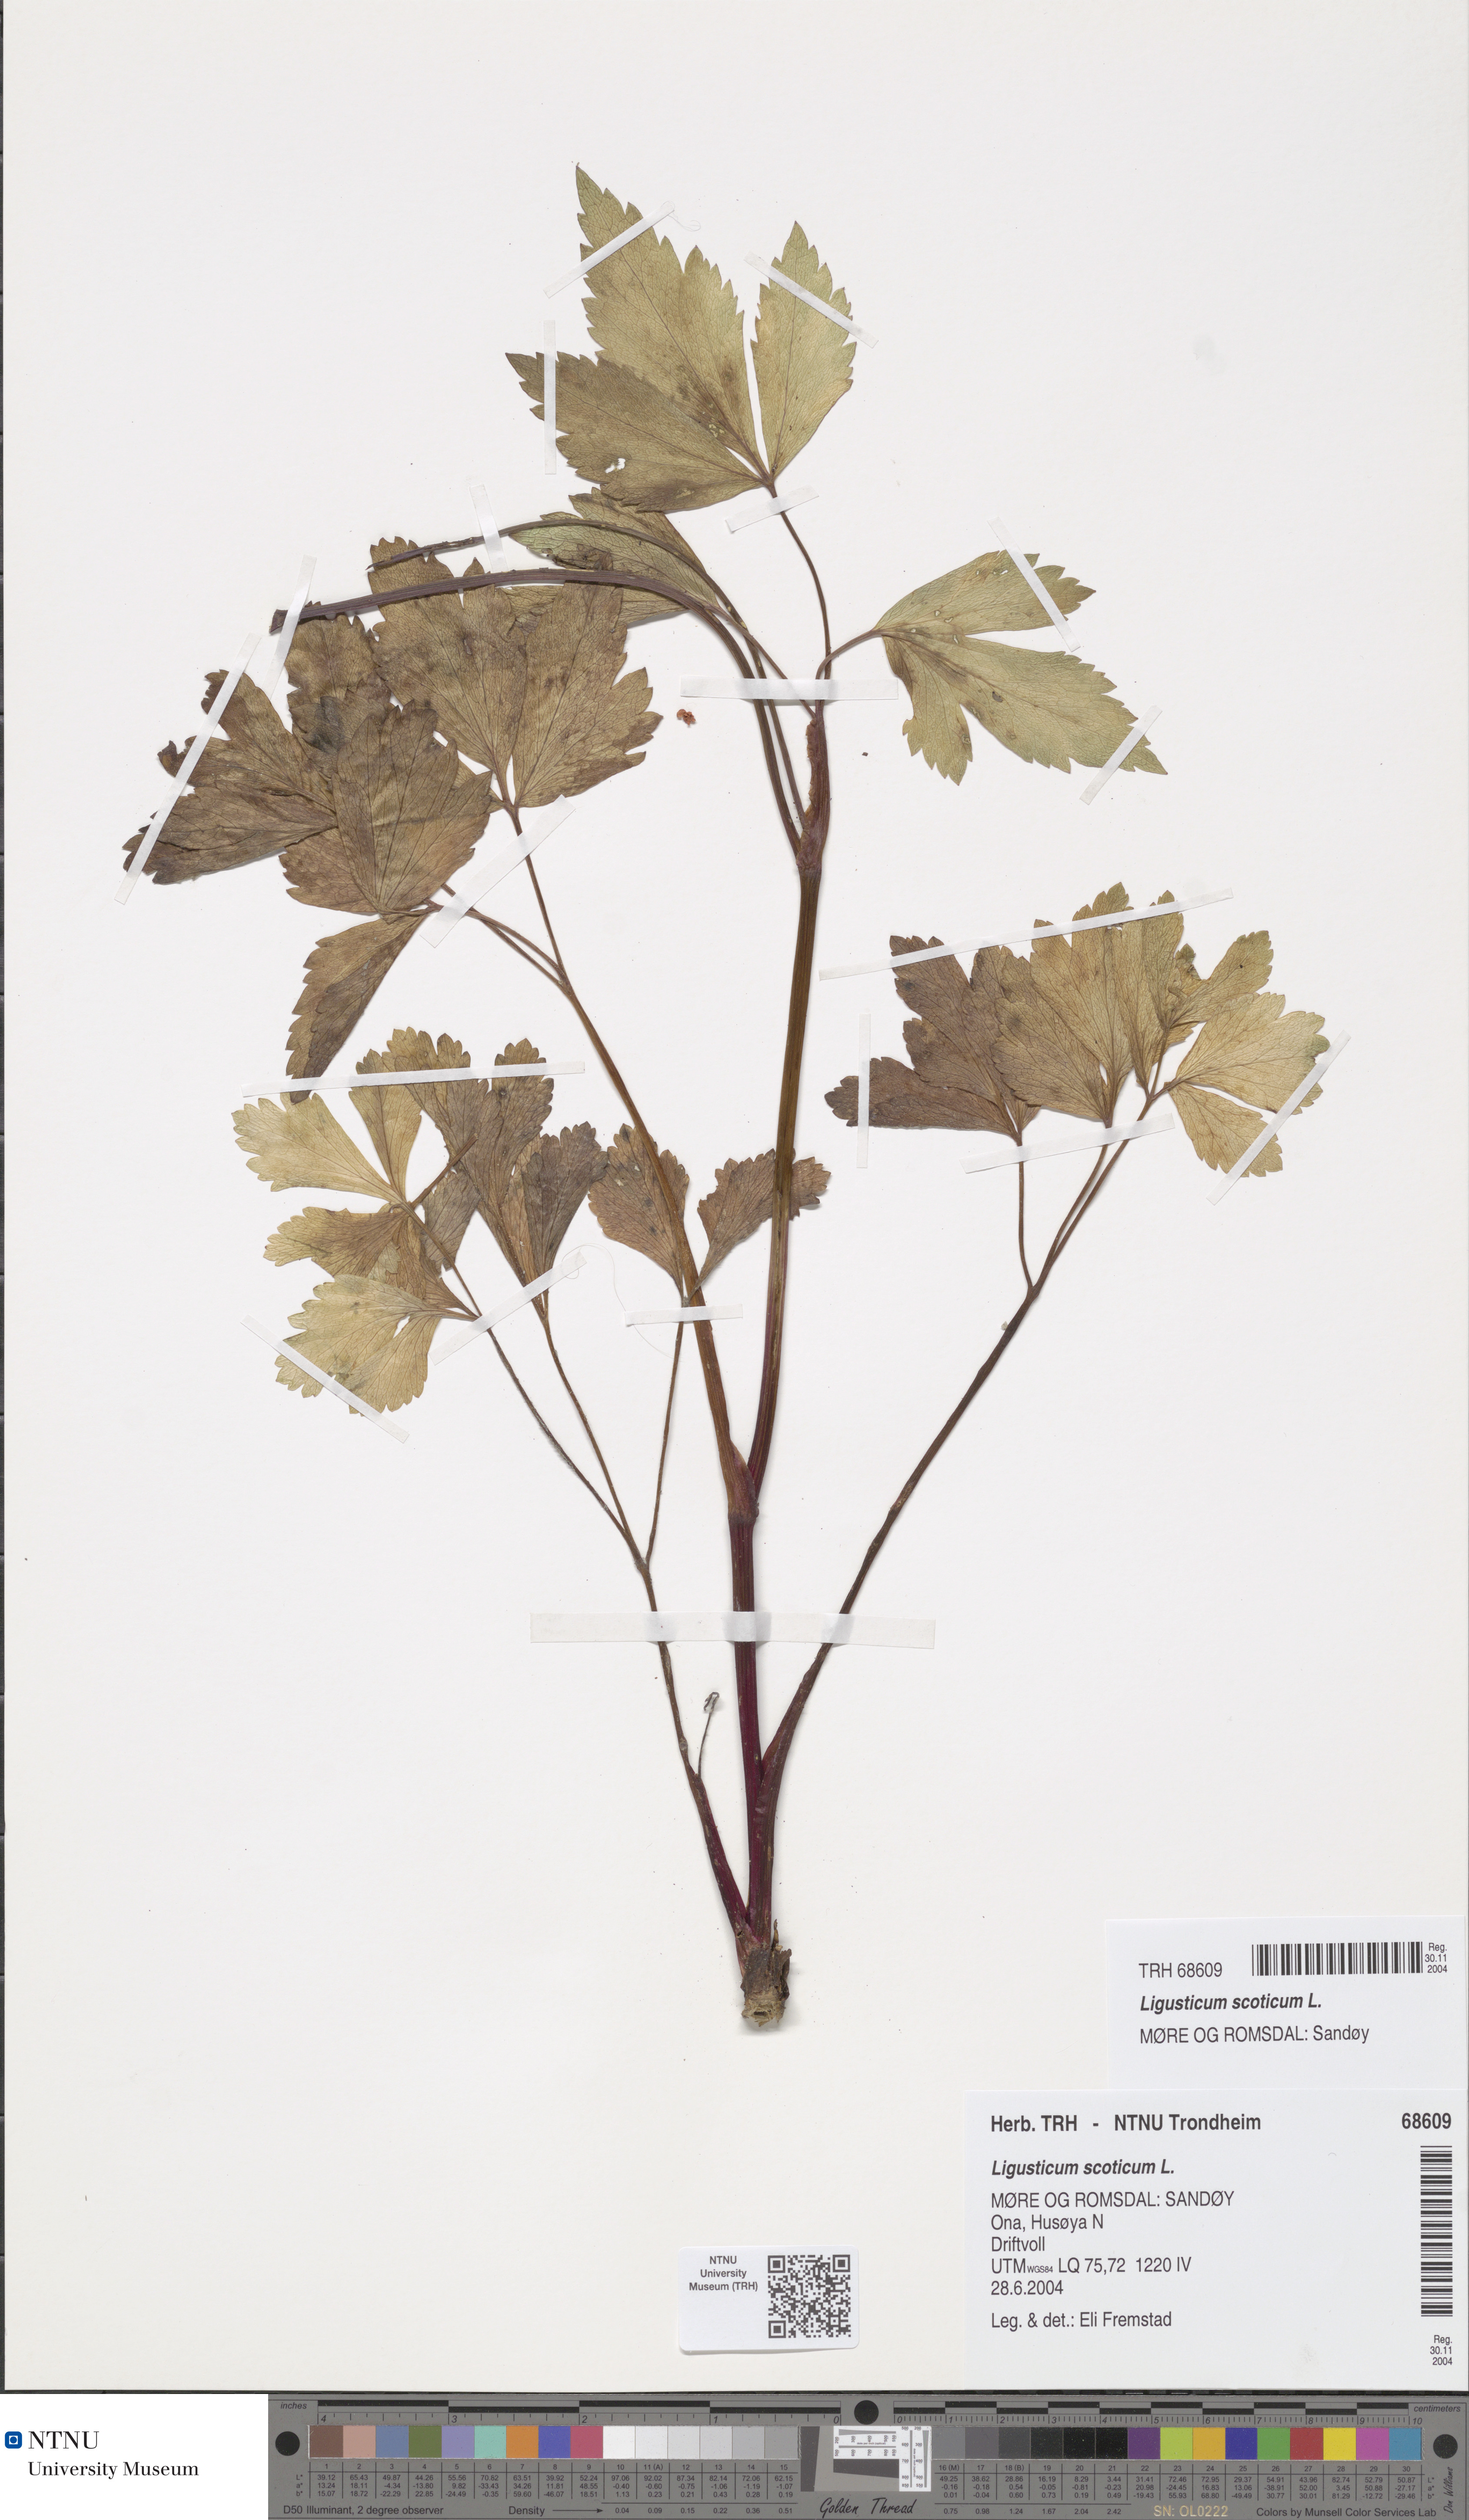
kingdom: Plantae
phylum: Tracheophyta
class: Magnoliopsida
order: Apiales
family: Apiaceae
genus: Ligusticum
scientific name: Ligusticum scothicum
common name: Beach lovage
